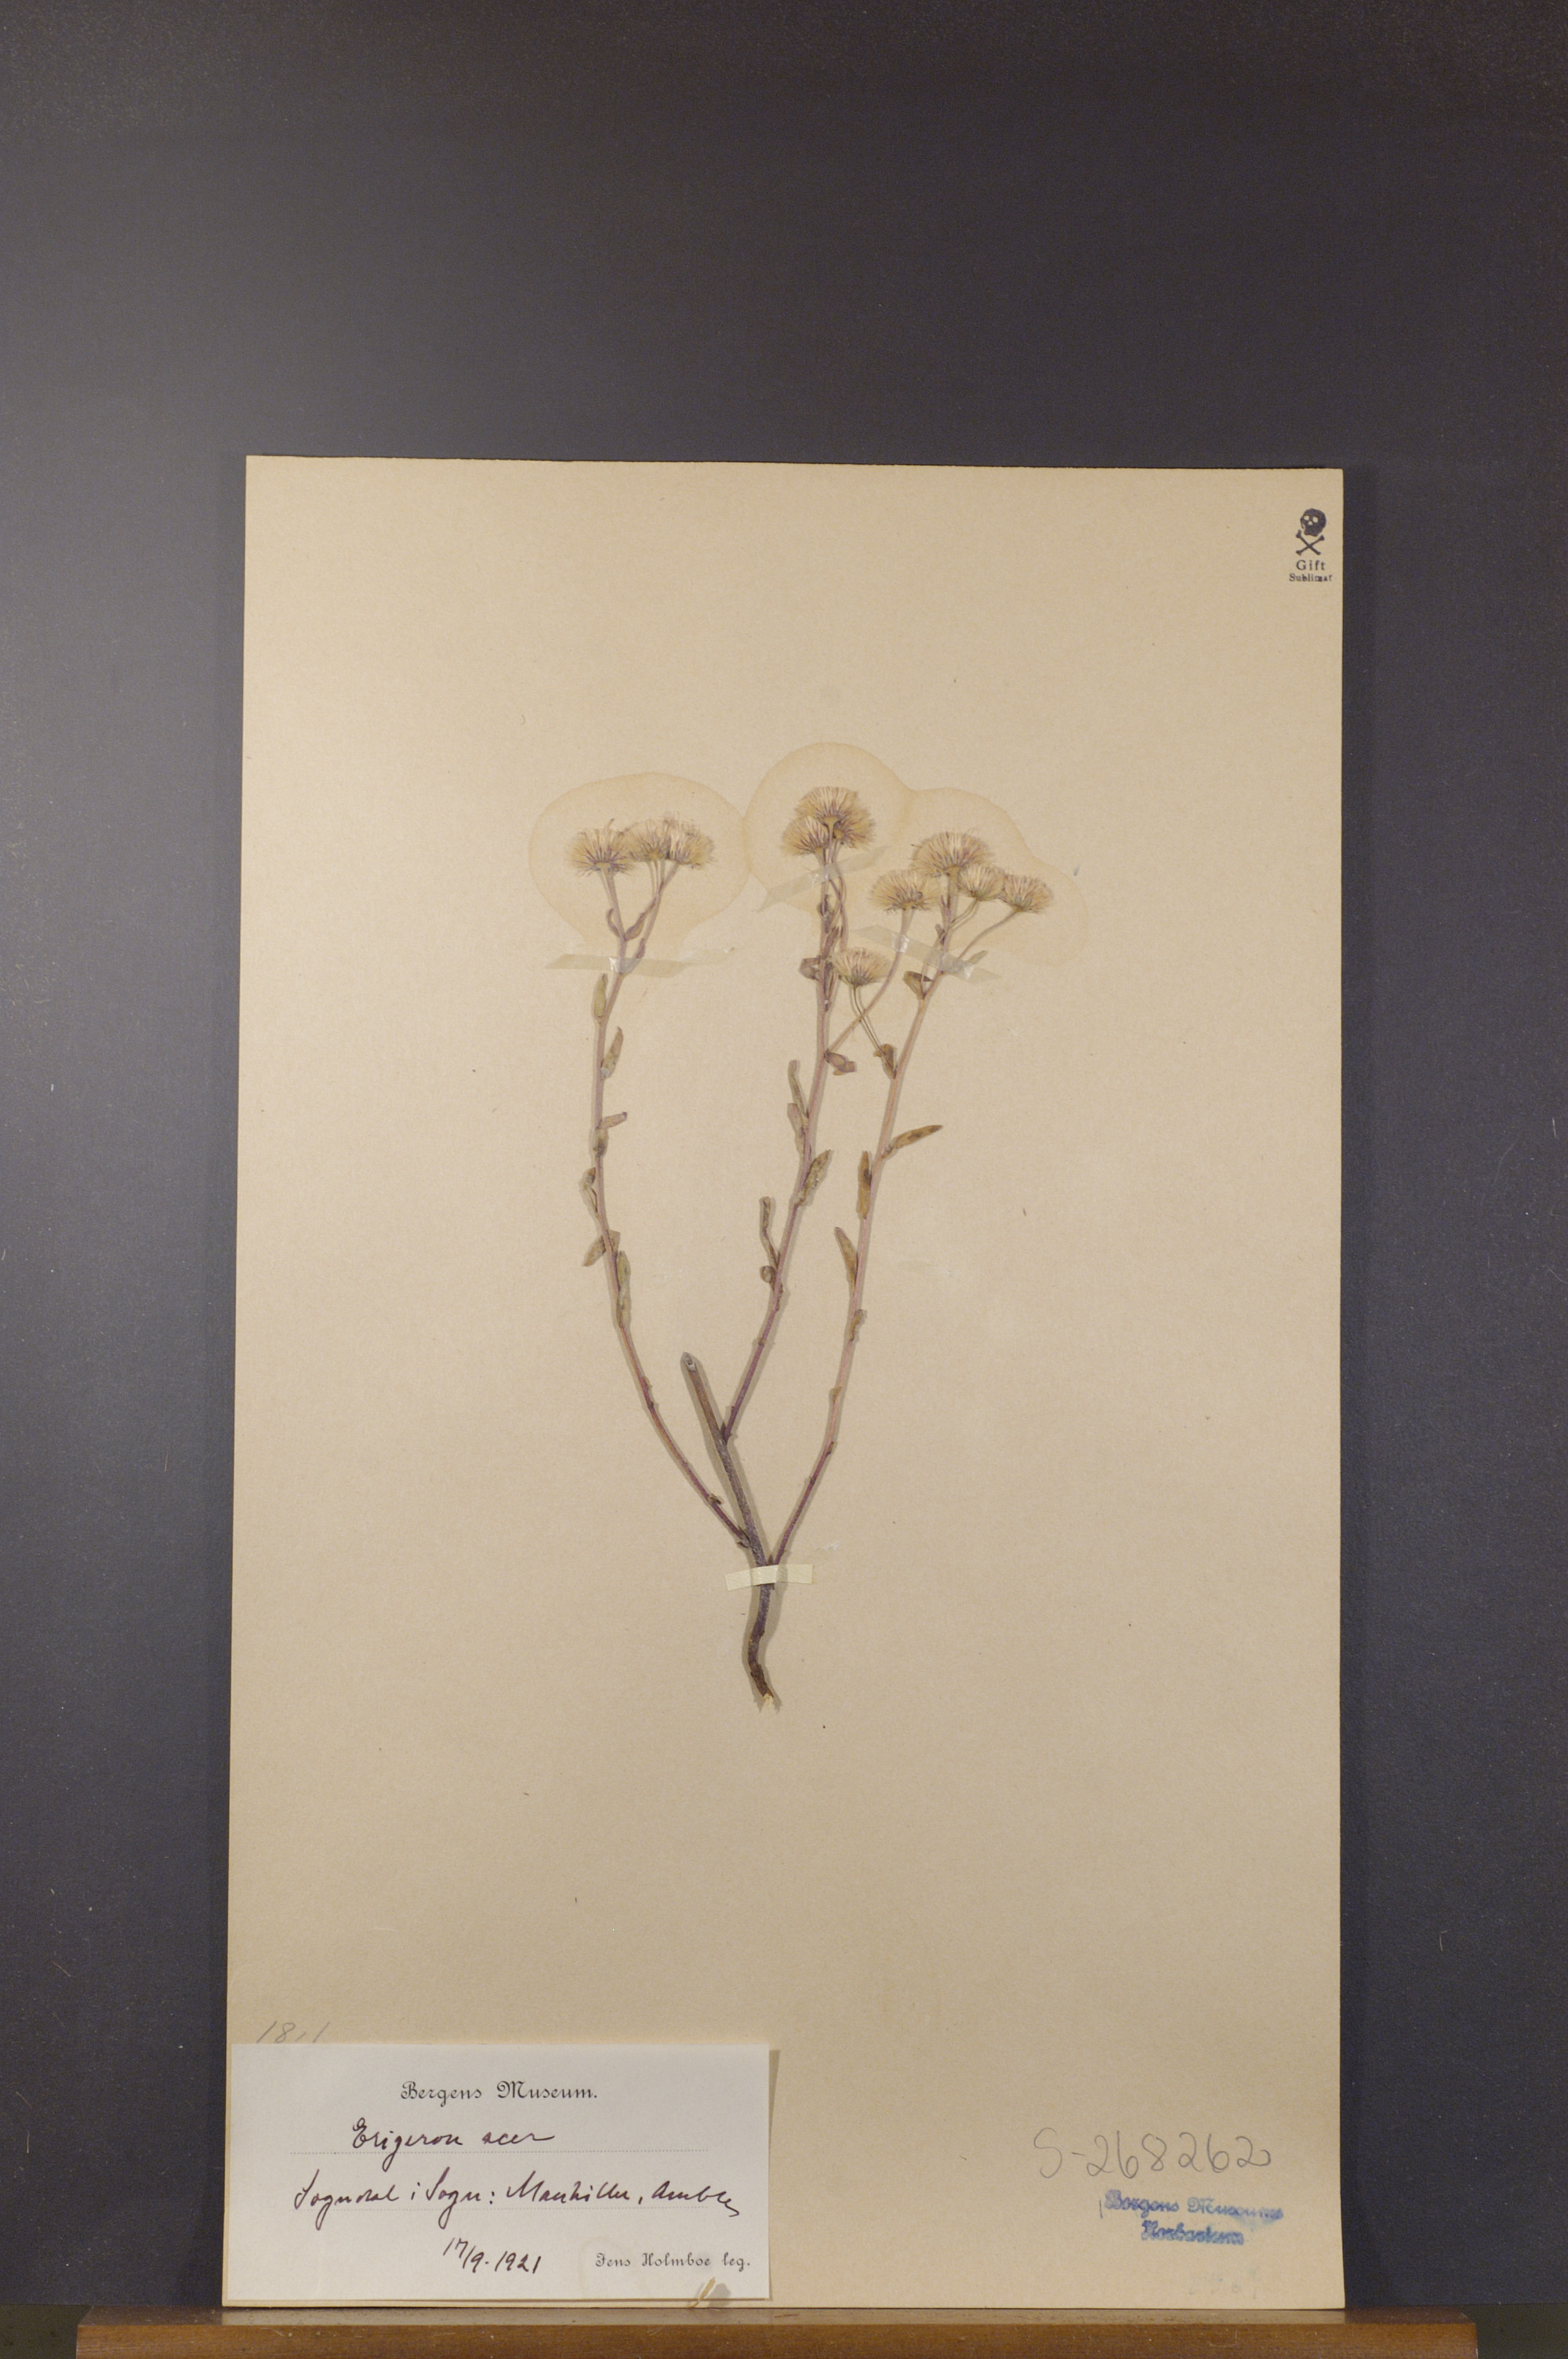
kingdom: Plantae
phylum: Tracheophyta
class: Magnoliopsida
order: Asterales
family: Asteraceae
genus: Erigeron
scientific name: Erigeron acris
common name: Blue fleabane
